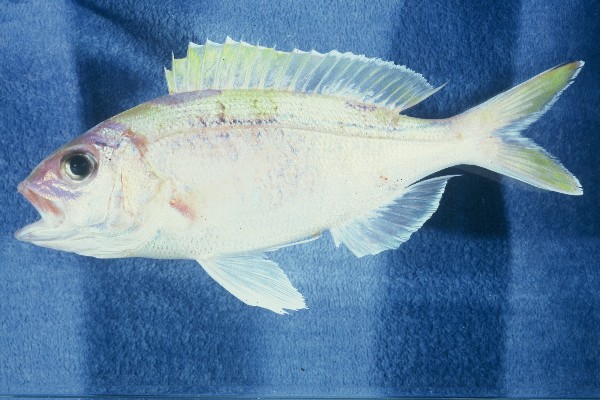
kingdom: Animalia
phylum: Chordata
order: Perciformes
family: Lutjanidae
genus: Pristipomoides
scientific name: Pristipomoides argyrogrammicus
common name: Big-eyed snapper
